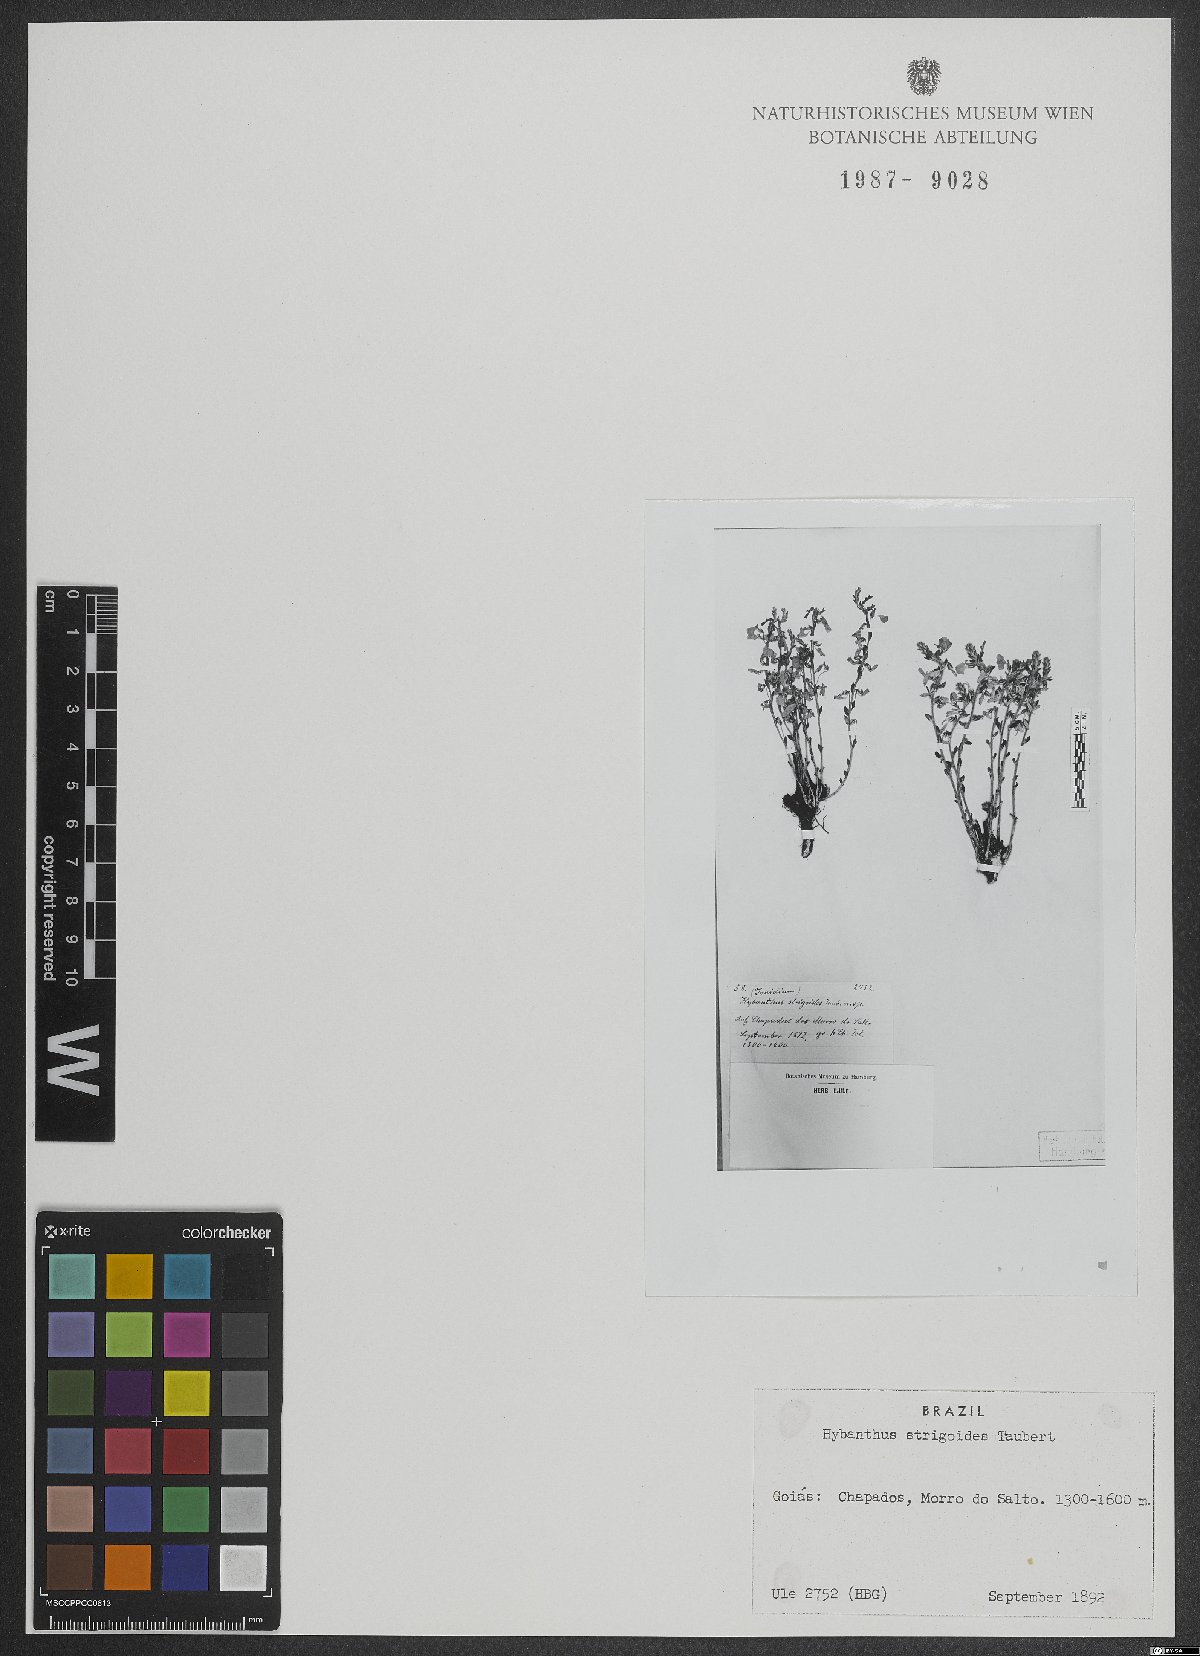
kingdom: Plantae
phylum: Tracheophyta
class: Magnoliopsida
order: Malpighiales
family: Violaceae
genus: Pombalia
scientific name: Pombalia strigoides
